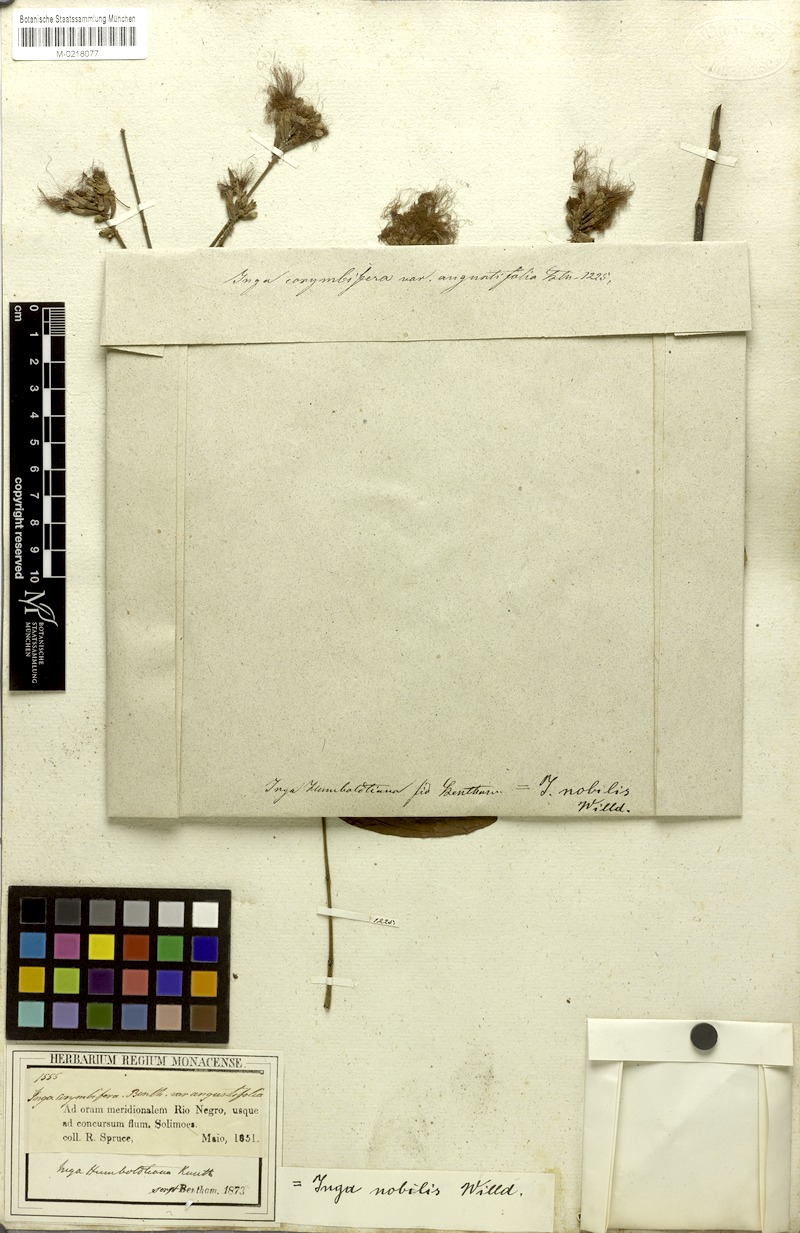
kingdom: Plantae
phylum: Tracheophyta
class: Magnoliopsida
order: Fabales
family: Fabaceae
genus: Inga
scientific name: Inga nobilis
